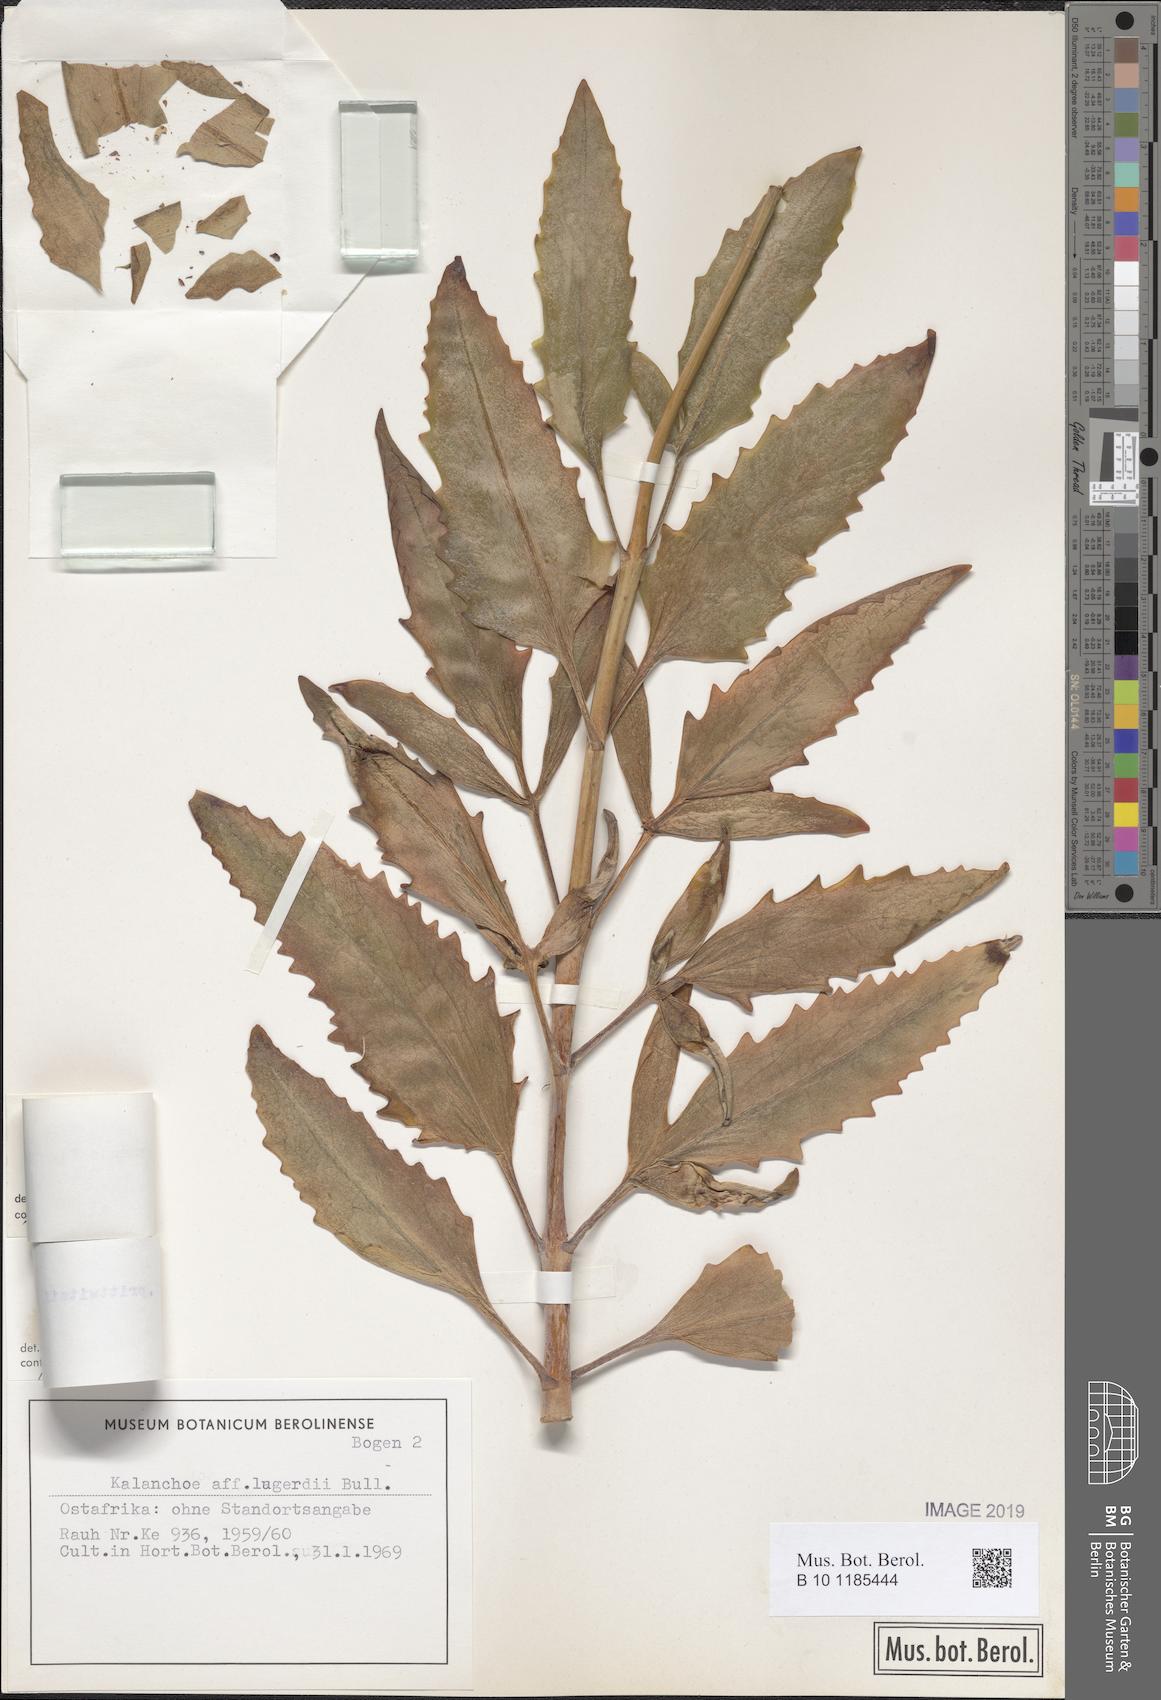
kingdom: Plantae
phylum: Tracheophyta
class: Magnoliopsida
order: Saxifragales
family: Crassulaceae
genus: Kalanchoe
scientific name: Kalanchoe germanae
